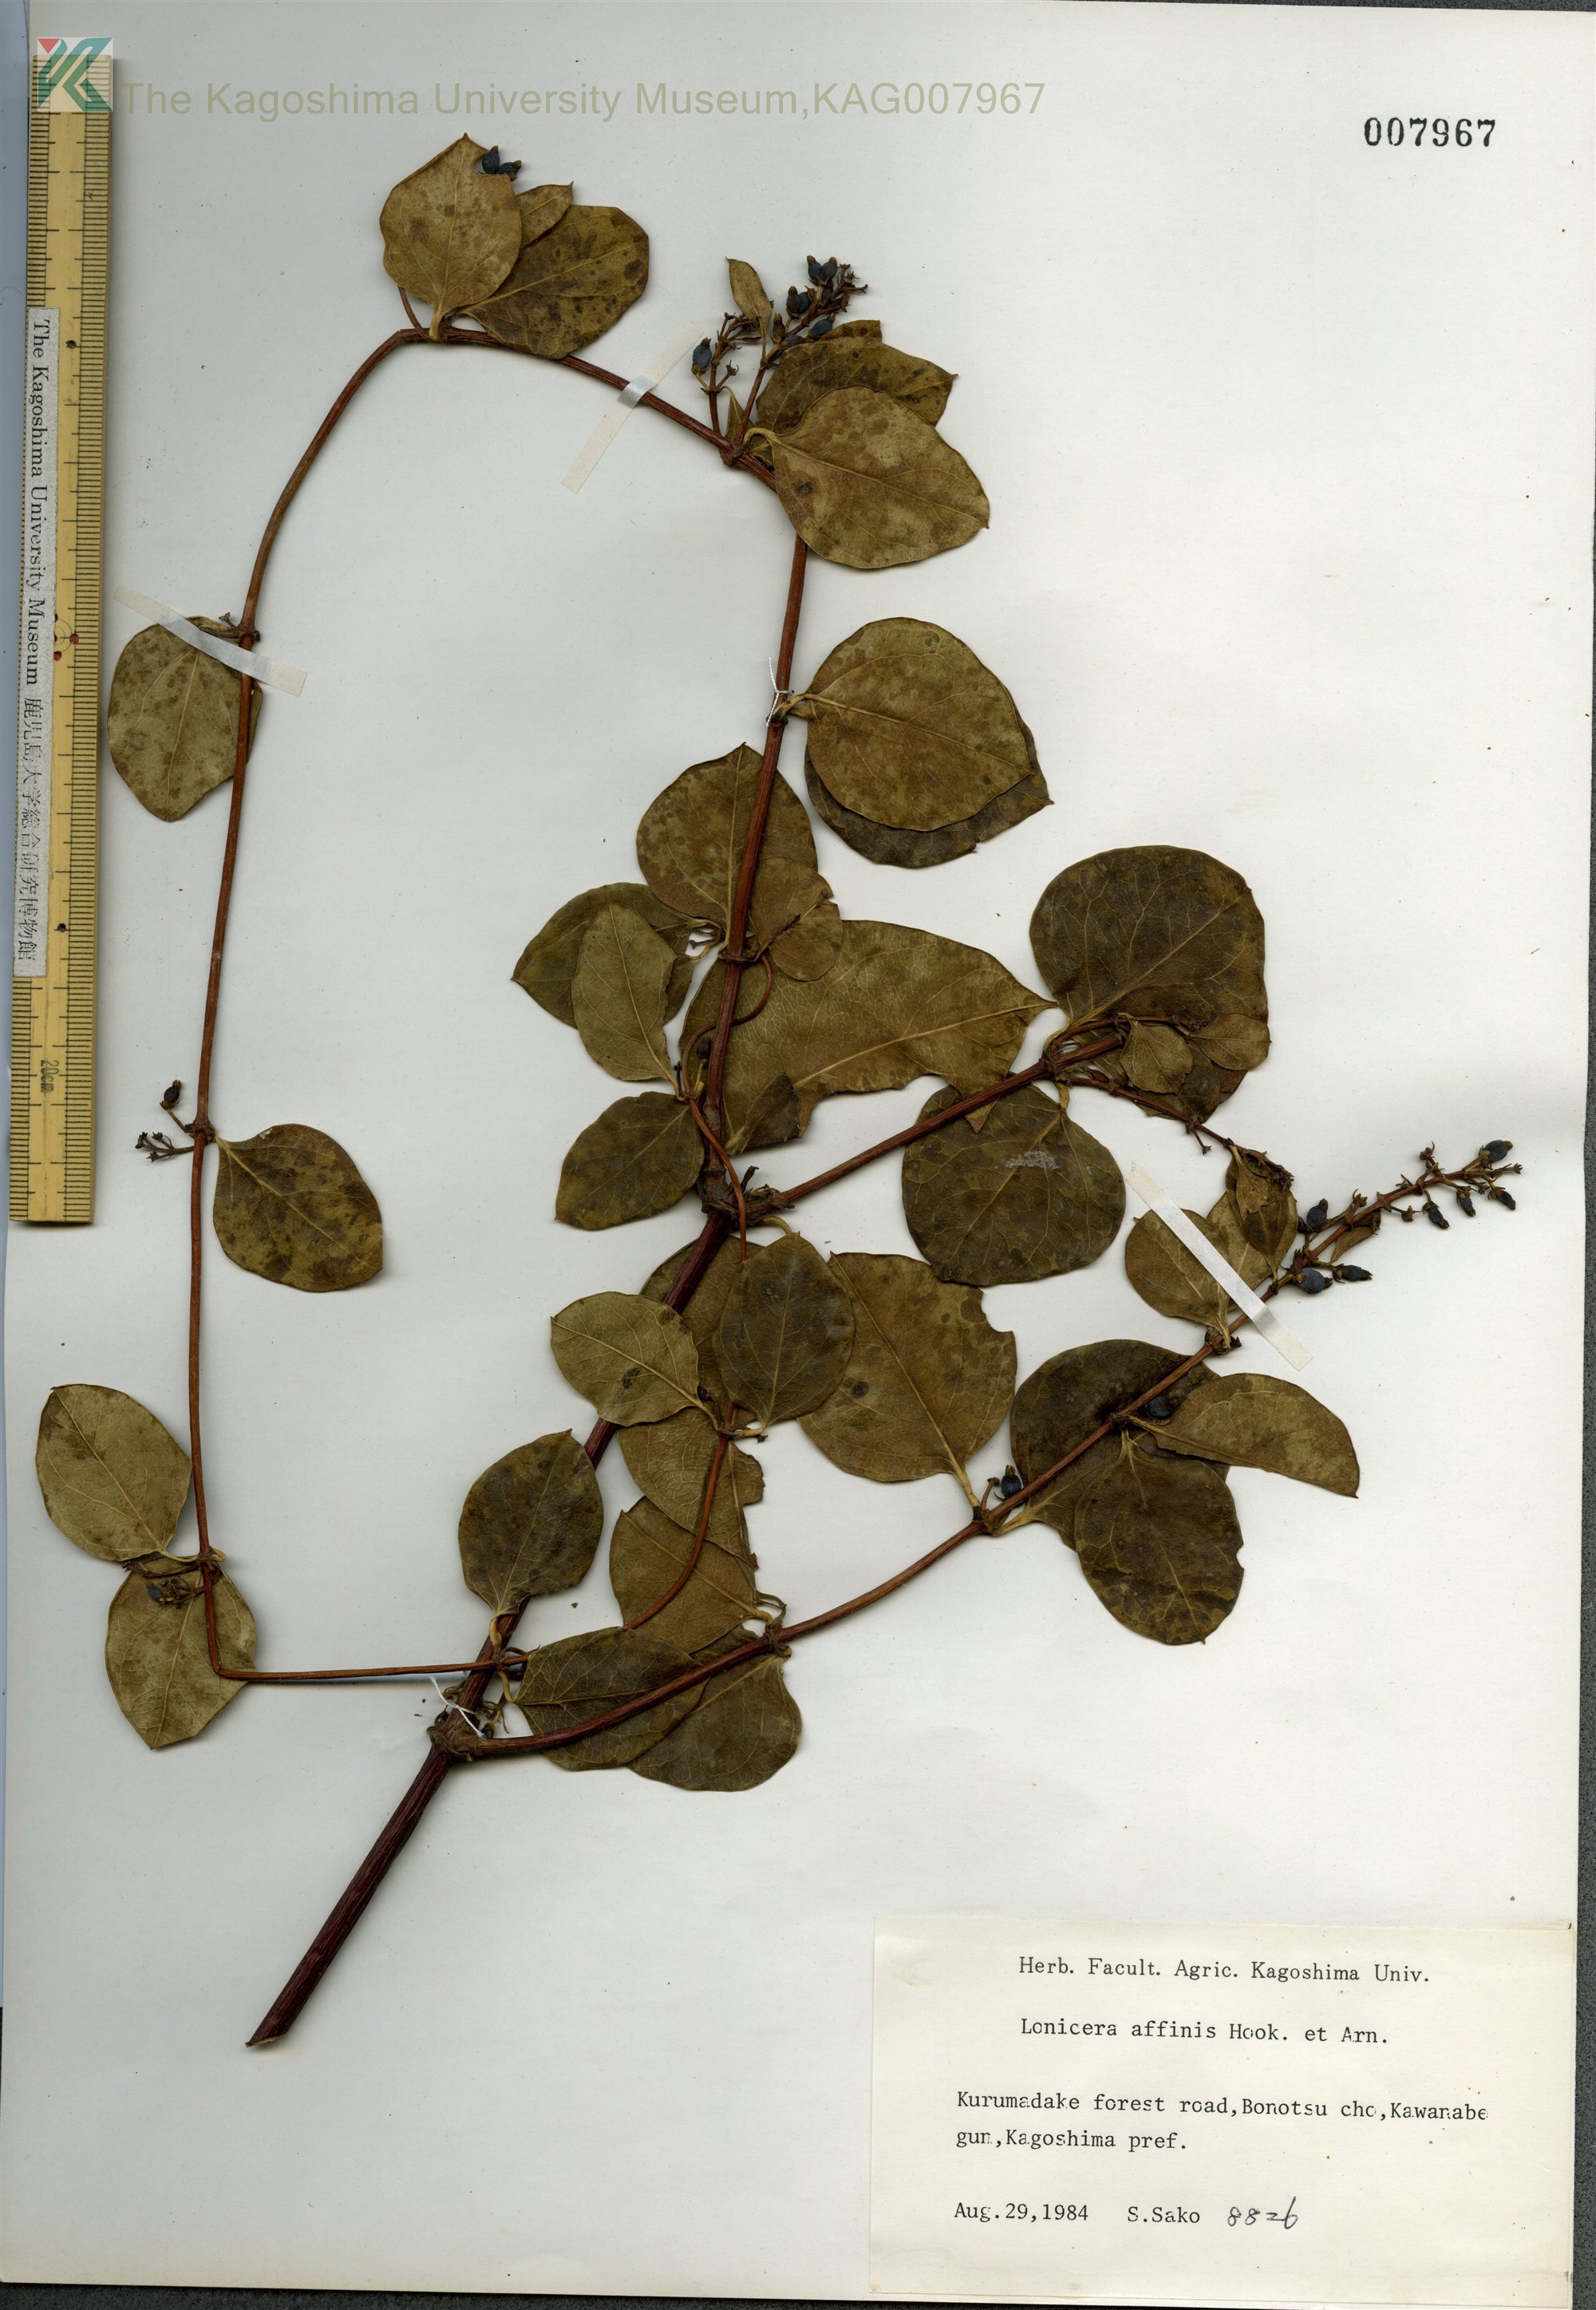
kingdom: Plantae
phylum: Tracheophyta
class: Magnoliopsida
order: Dipsacales
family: Caprifoliaceae
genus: Lonicera
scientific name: Lonicera affinis
